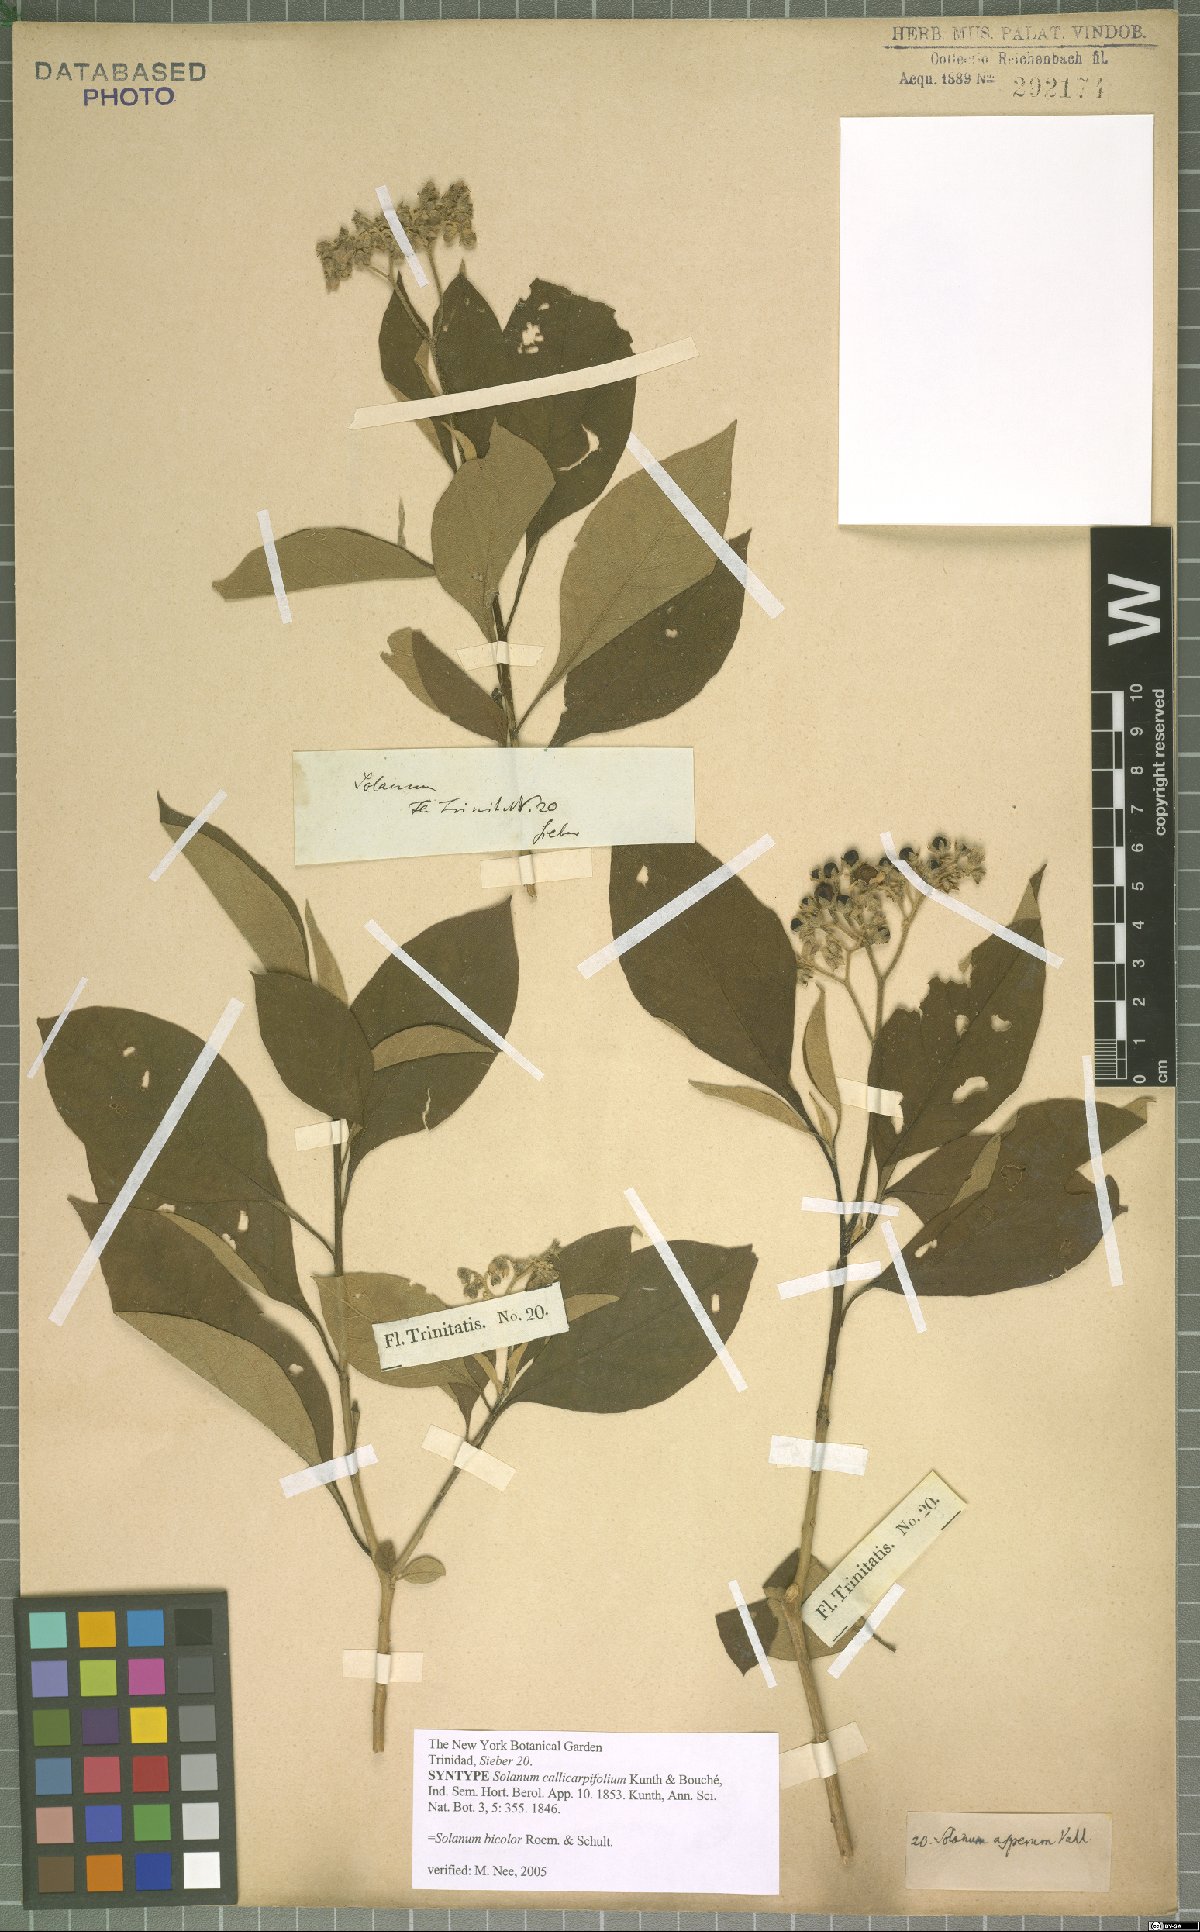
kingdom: Plantae
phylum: Tracheophyta
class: Magnoliopsida
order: Solanales
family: Solanaceae
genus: Solanum
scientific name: Solanum bicolor
